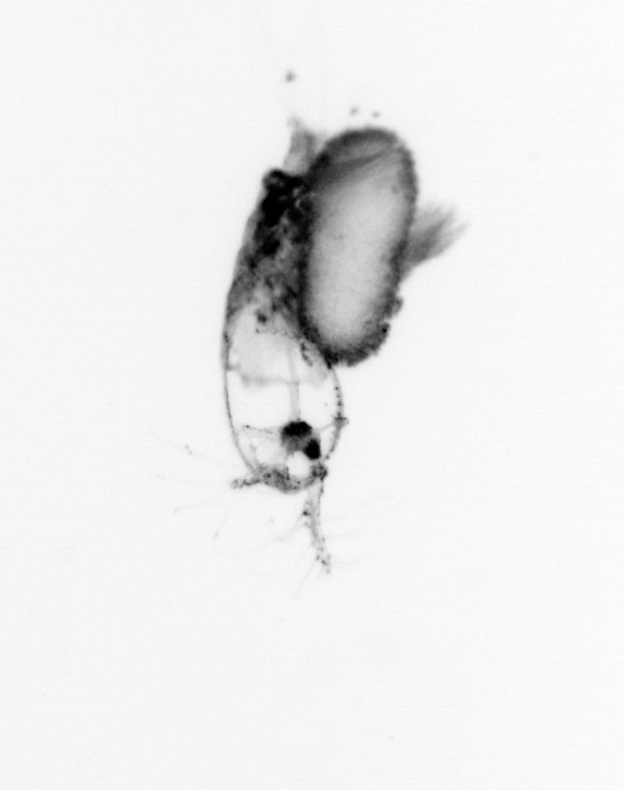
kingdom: Animalia
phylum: Arthropoda
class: Copepoda
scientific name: Copepoda
